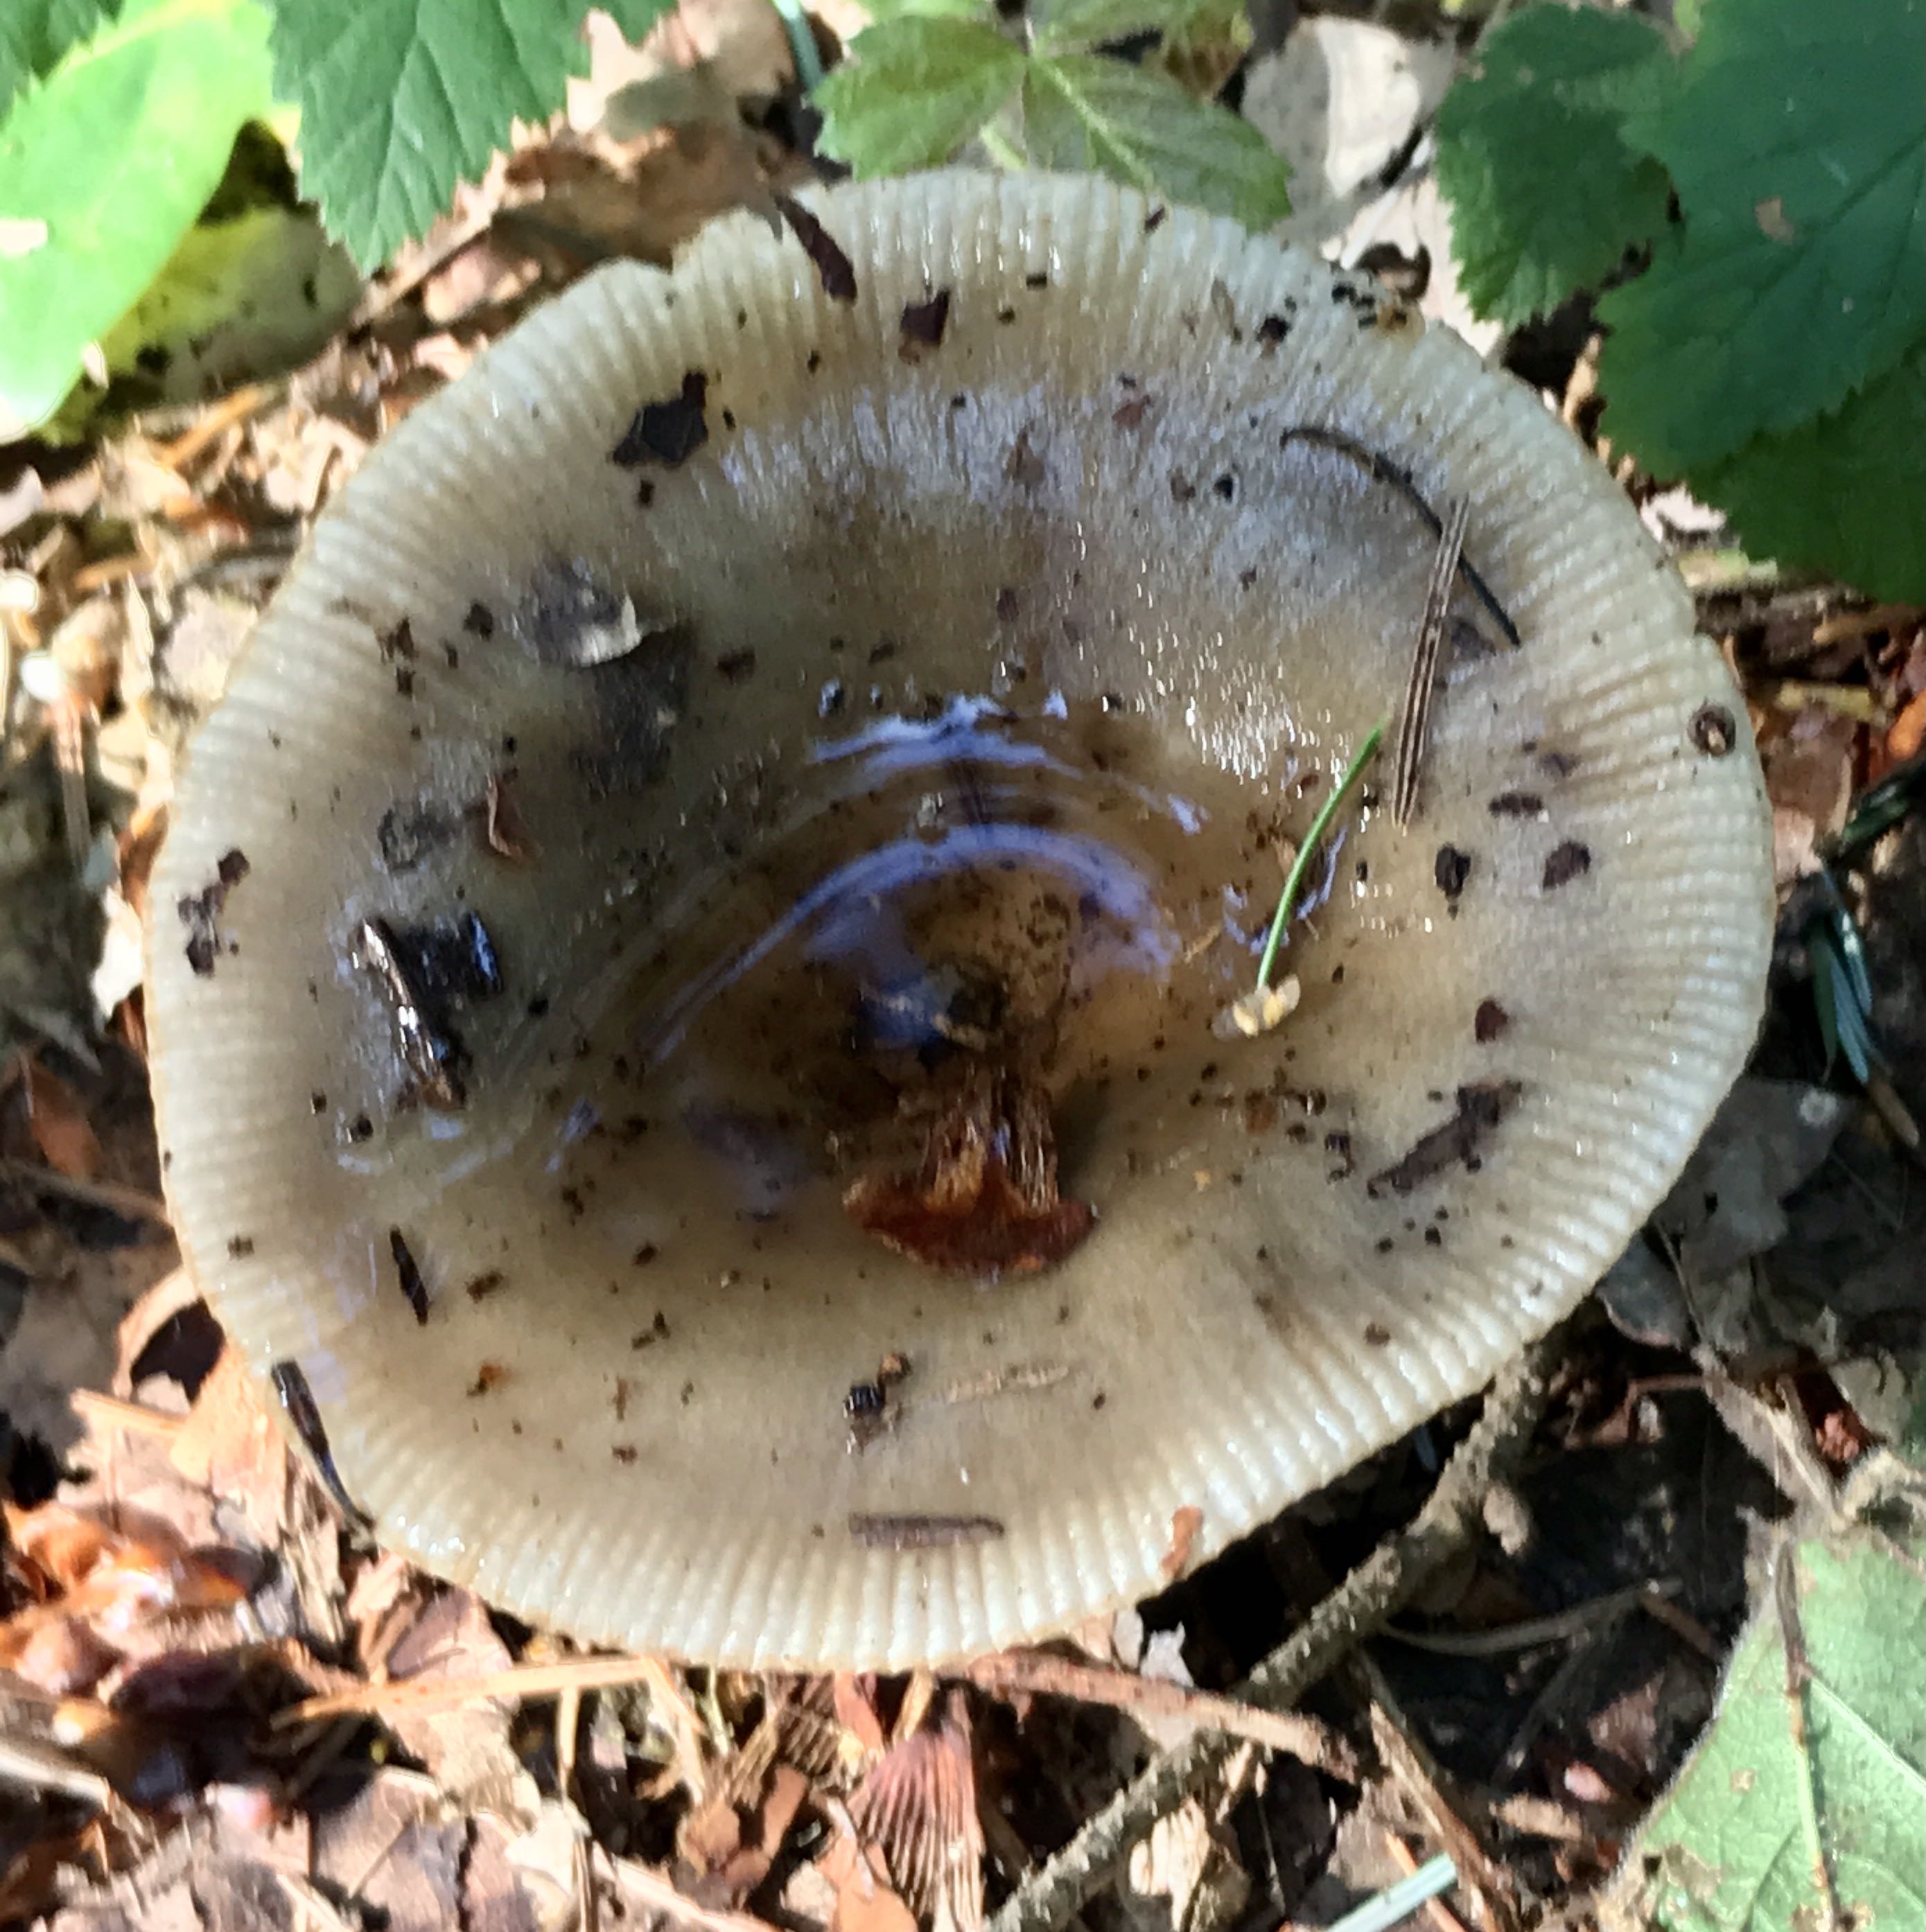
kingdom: Fungi
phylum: Basidiomycota
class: Agaricomycetes
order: Russulales
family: Russulaceae
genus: Russula
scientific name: Russula
